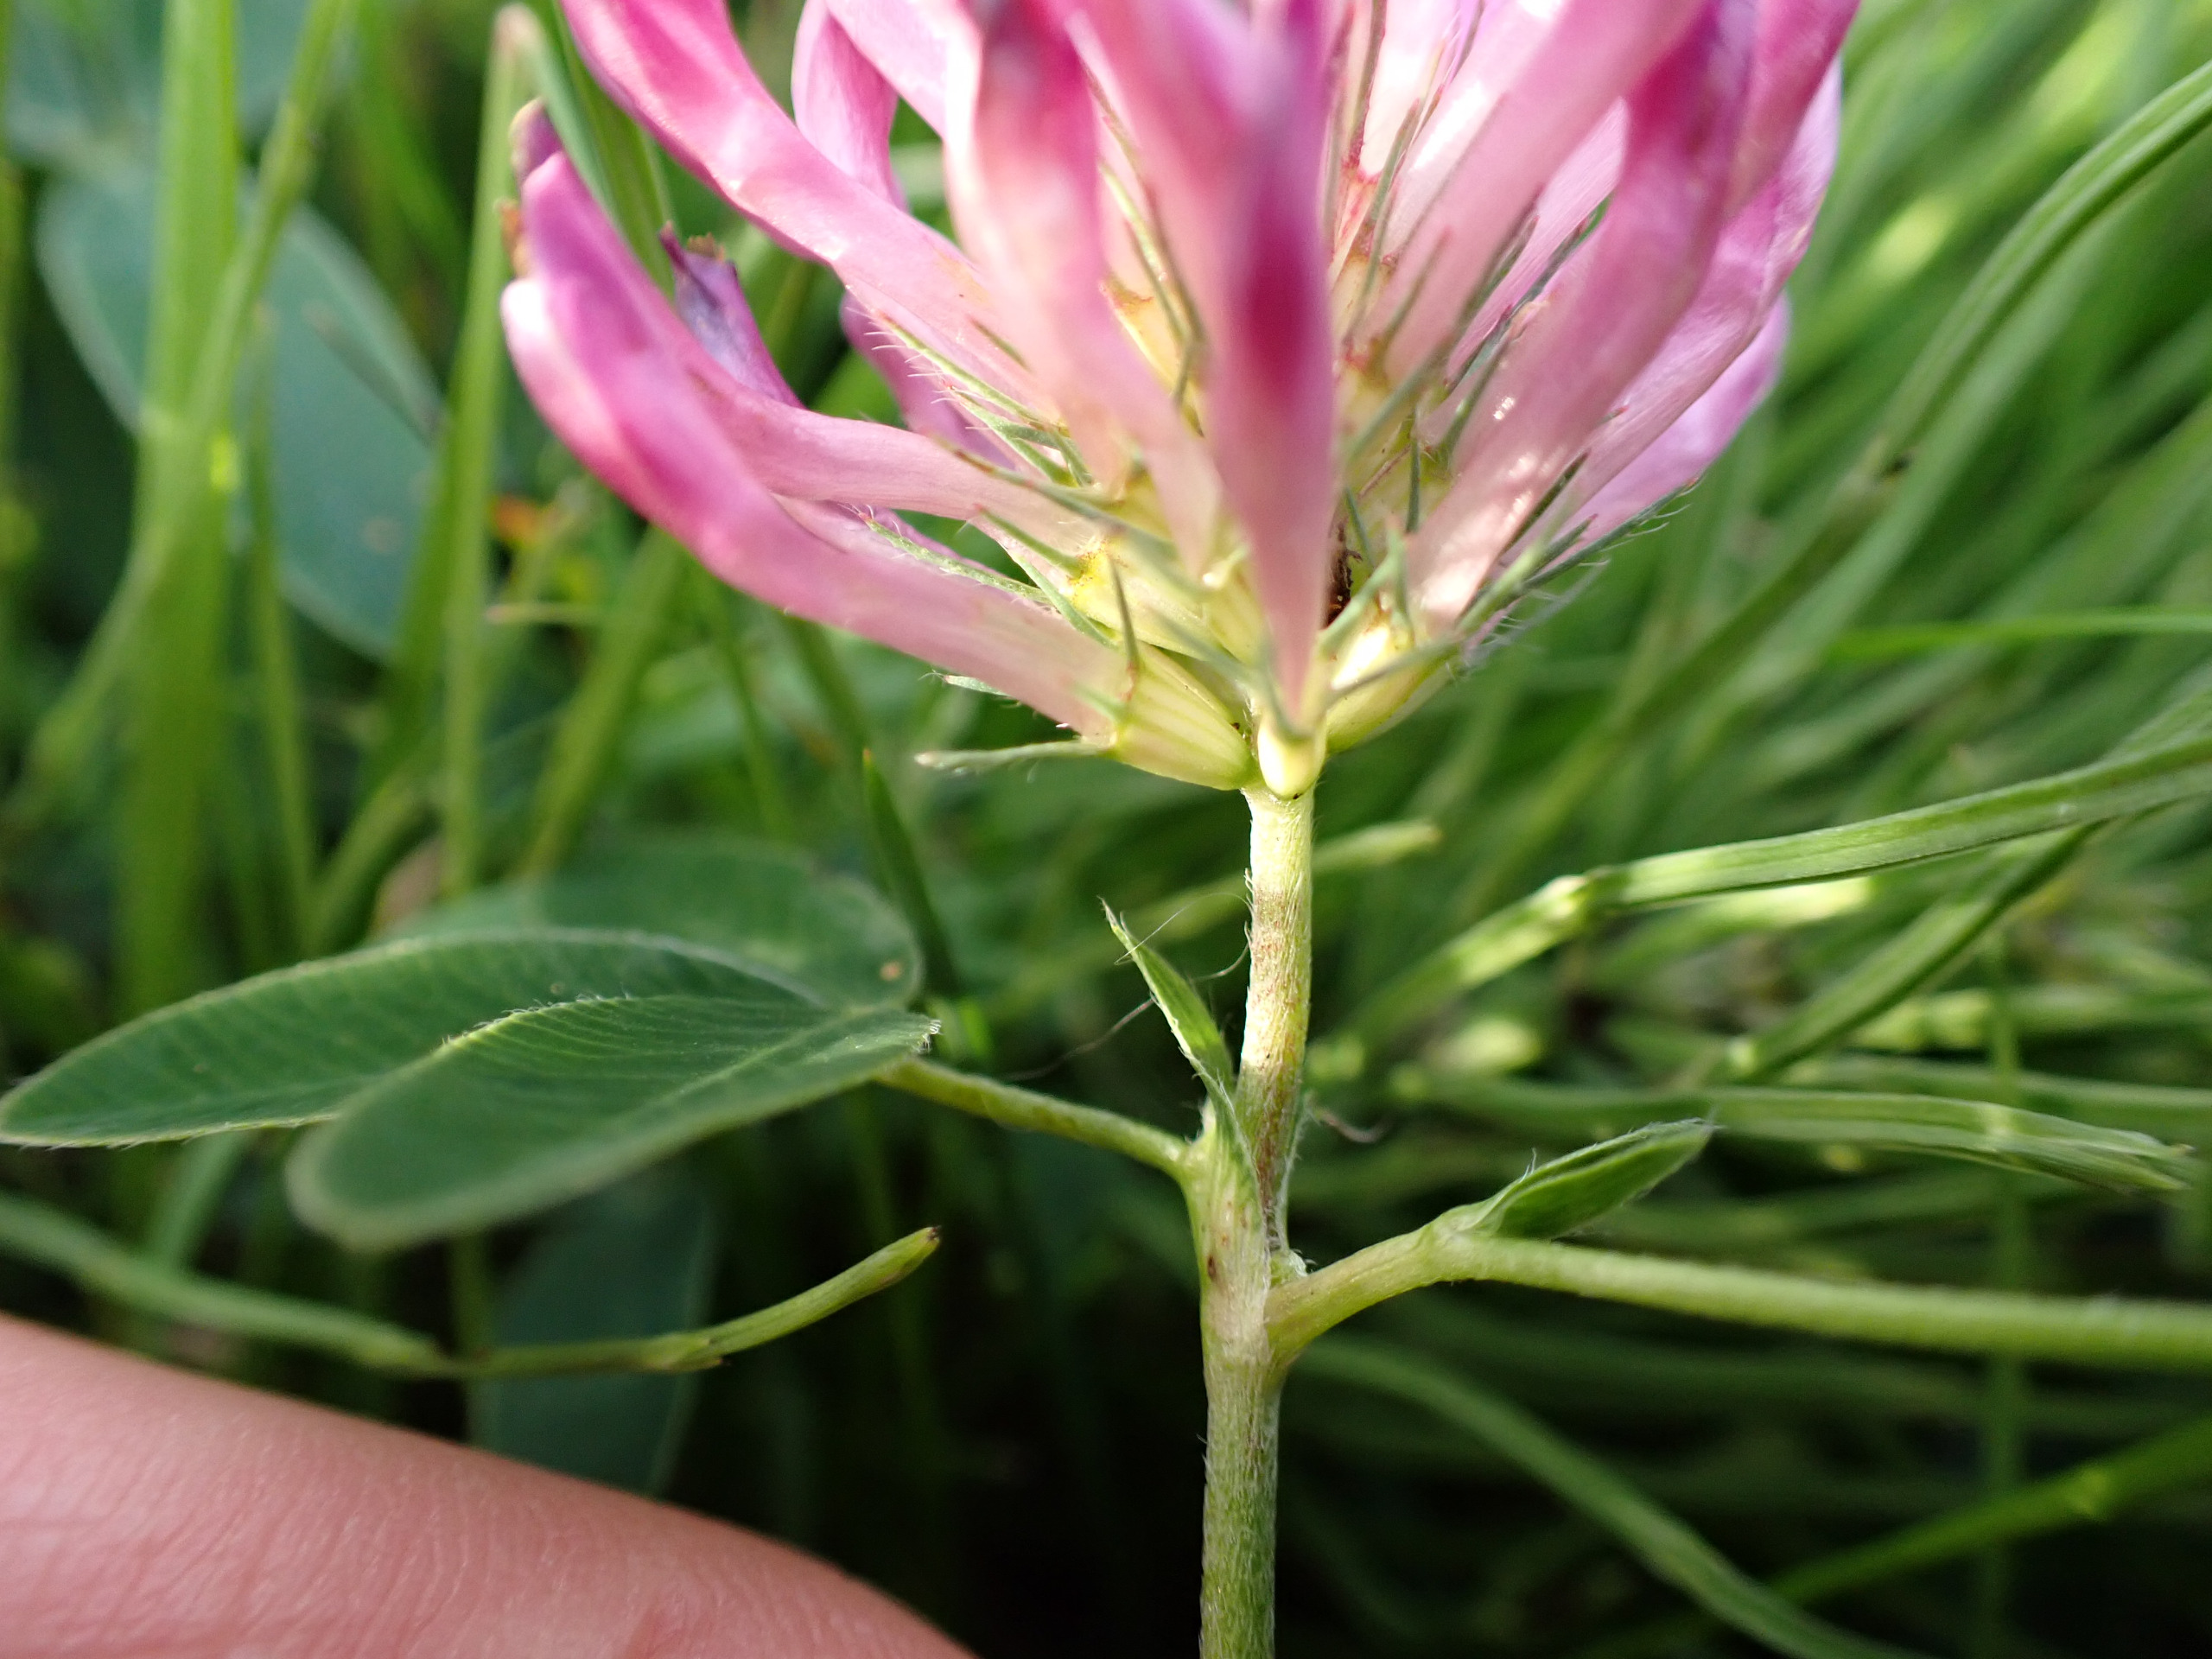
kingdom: Plantae
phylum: Tracheophyta
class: Magnoliopsida
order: Fabales
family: Fabaceae
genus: Trifolium
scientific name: Trifolium medium
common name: Bugtet kløver
